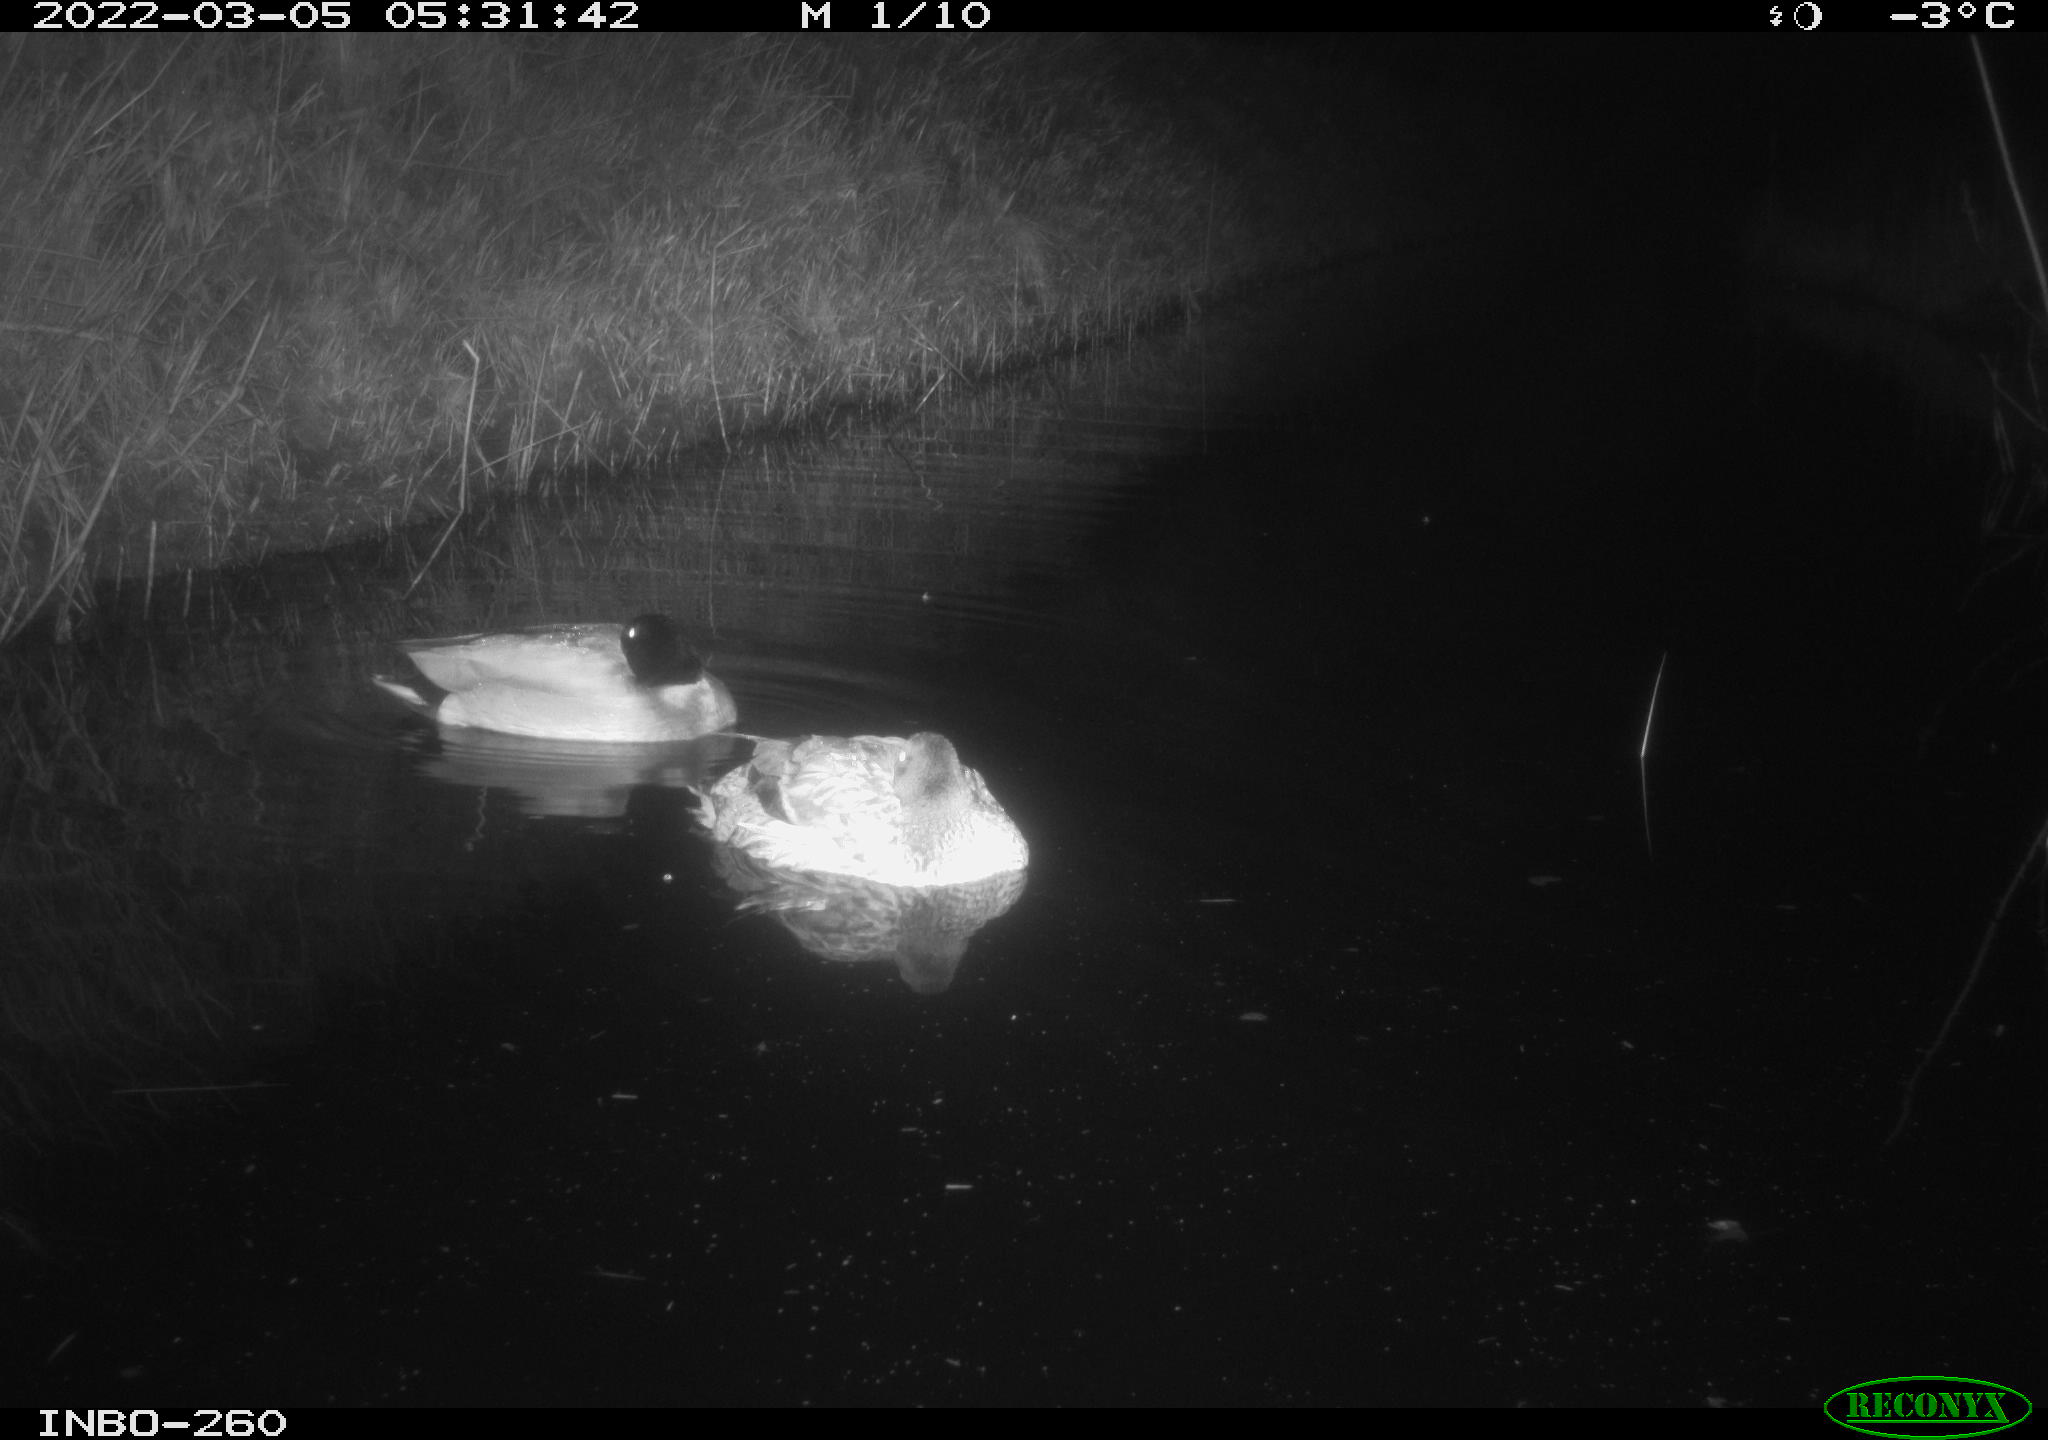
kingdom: Animalia
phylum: Chordata
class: Aves
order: Anseriformes
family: Anatidae
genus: Anas
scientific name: Anas platyrhynchos
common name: Mallard
